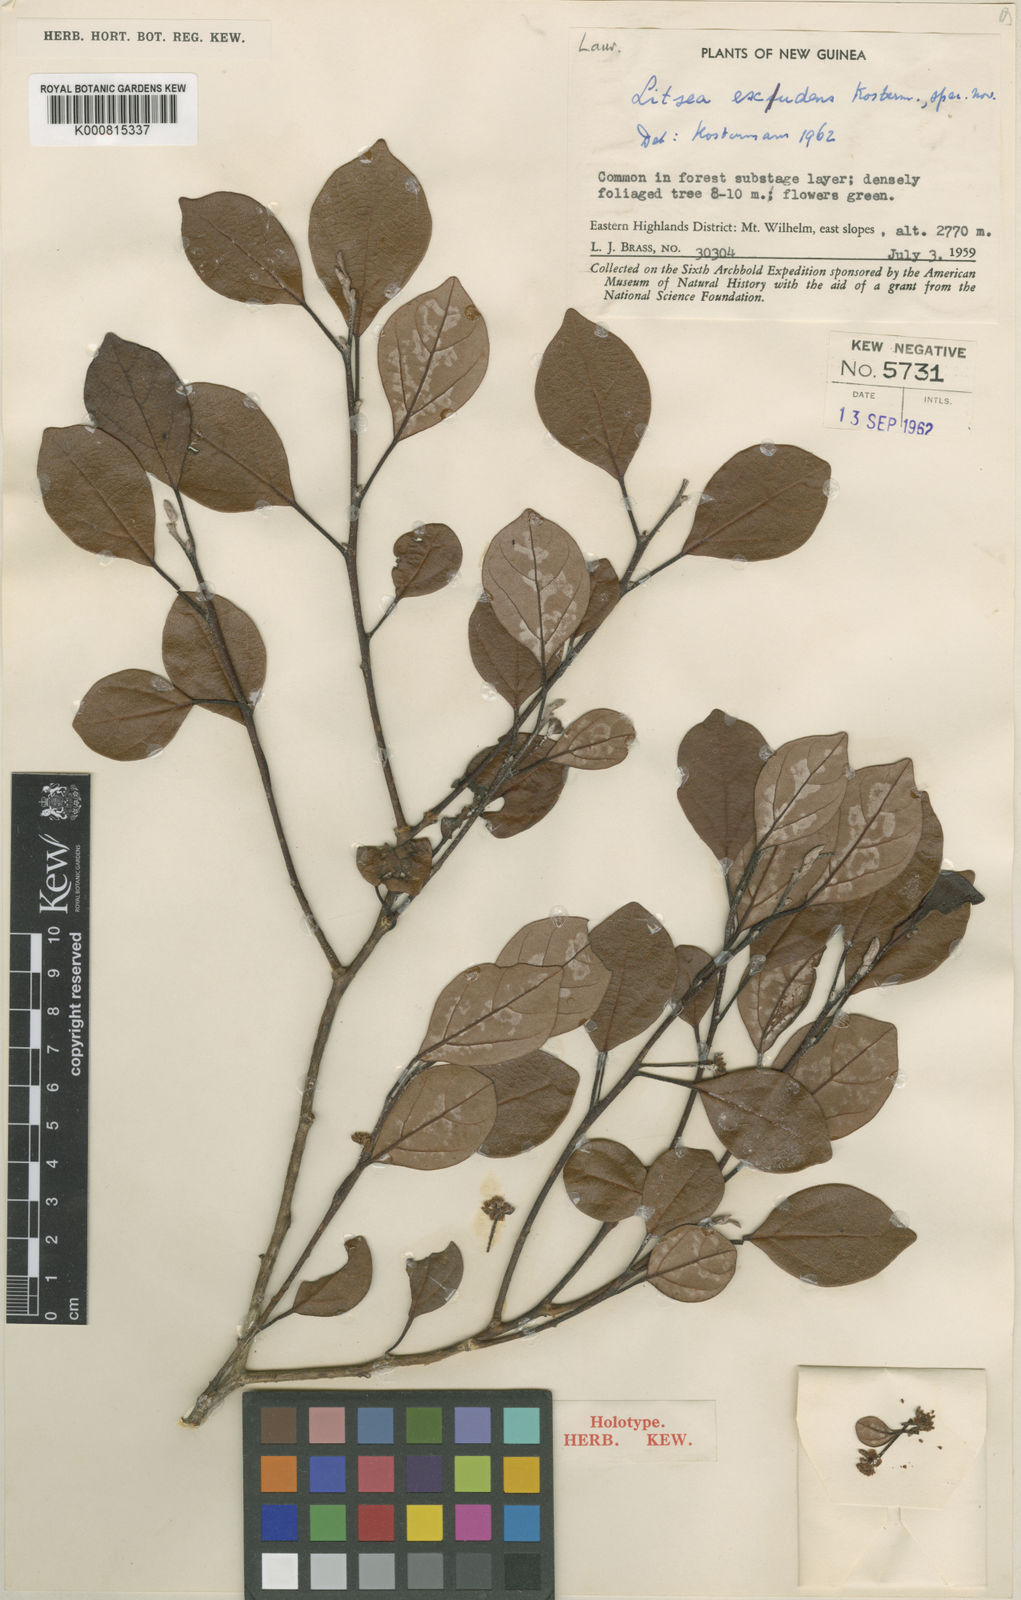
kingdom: Plantae
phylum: Tracheophyta
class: Magnoliopsida
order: Laurales
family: Lauraceae
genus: Litsea
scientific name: Litsea exsudens
